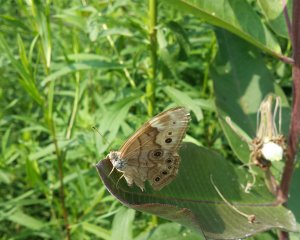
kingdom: Animalia
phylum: Arthropoda
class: Insecta
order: Lepidoptera
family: Nymphalidae
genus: Lethe
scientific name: Lethe anthedon
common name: Northern Pearly-Eye
